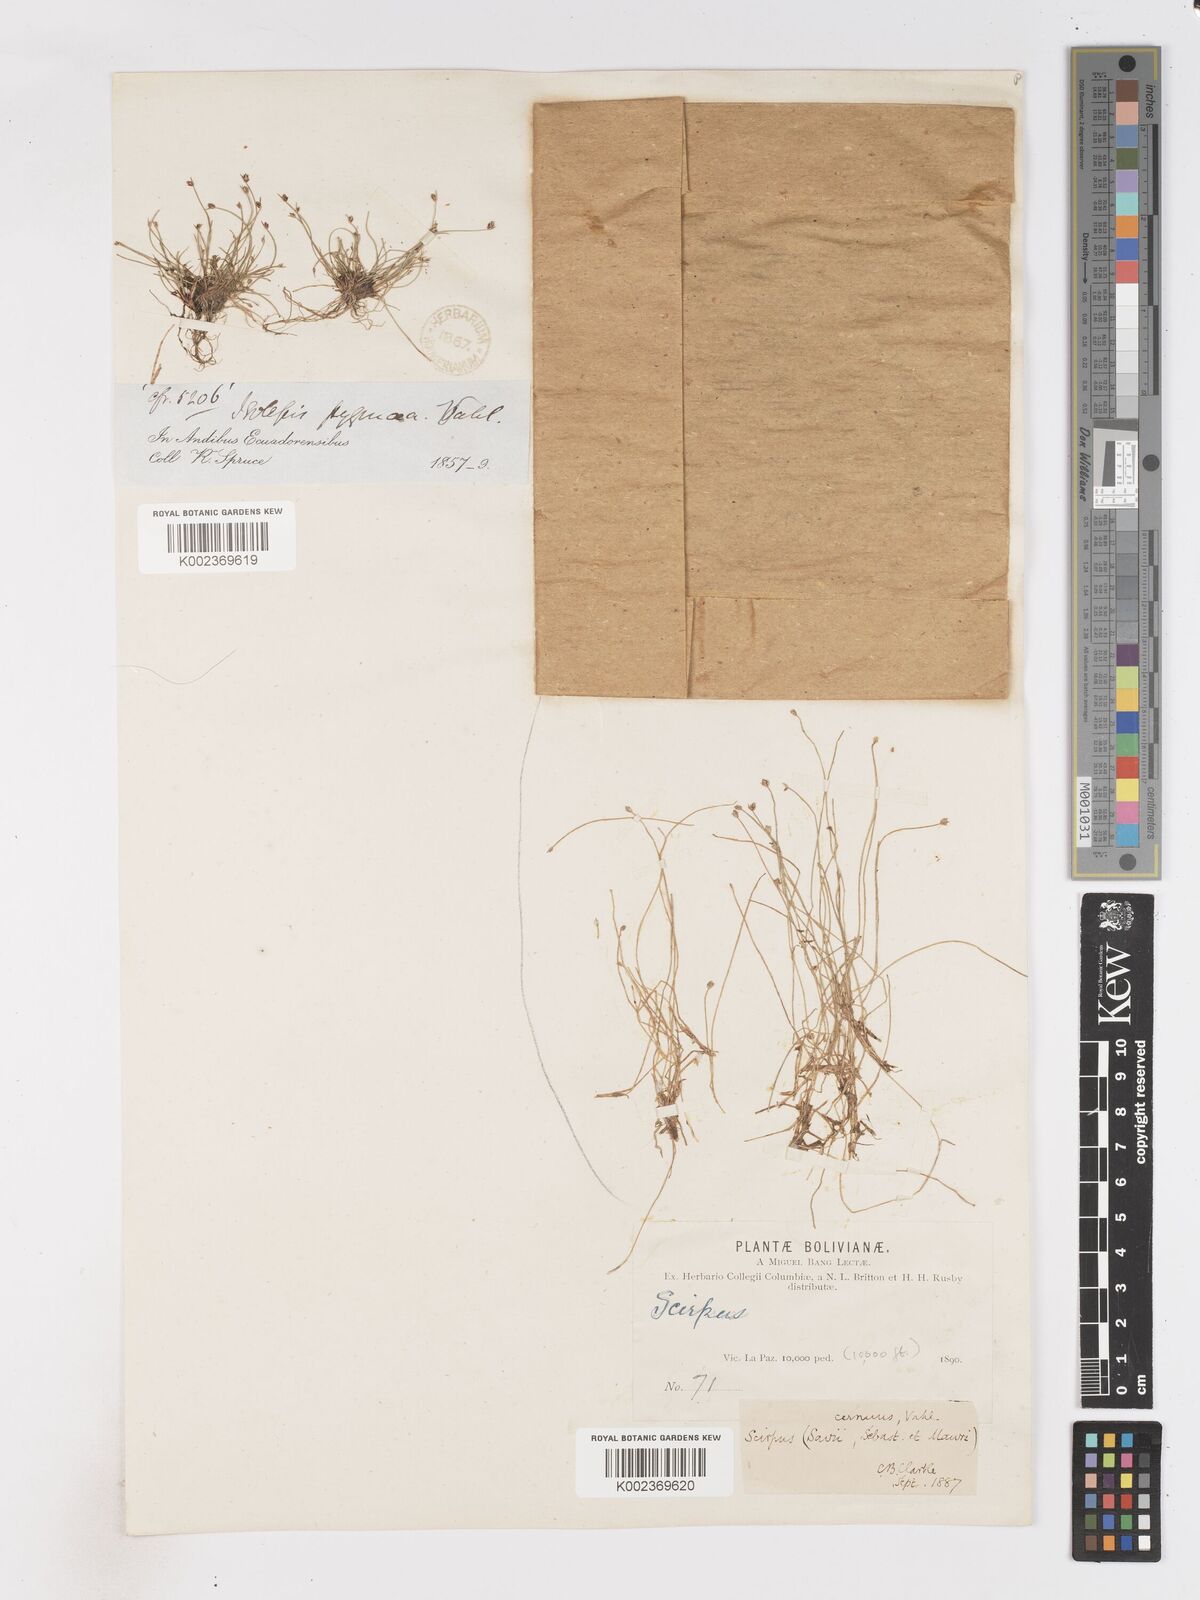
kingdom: Plantae
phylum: Tracheophyta
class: Liliopsida
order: Poales
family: Cyperaceae
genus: Isolepis
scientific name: Isolepis cernua
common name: Slender club-rush
